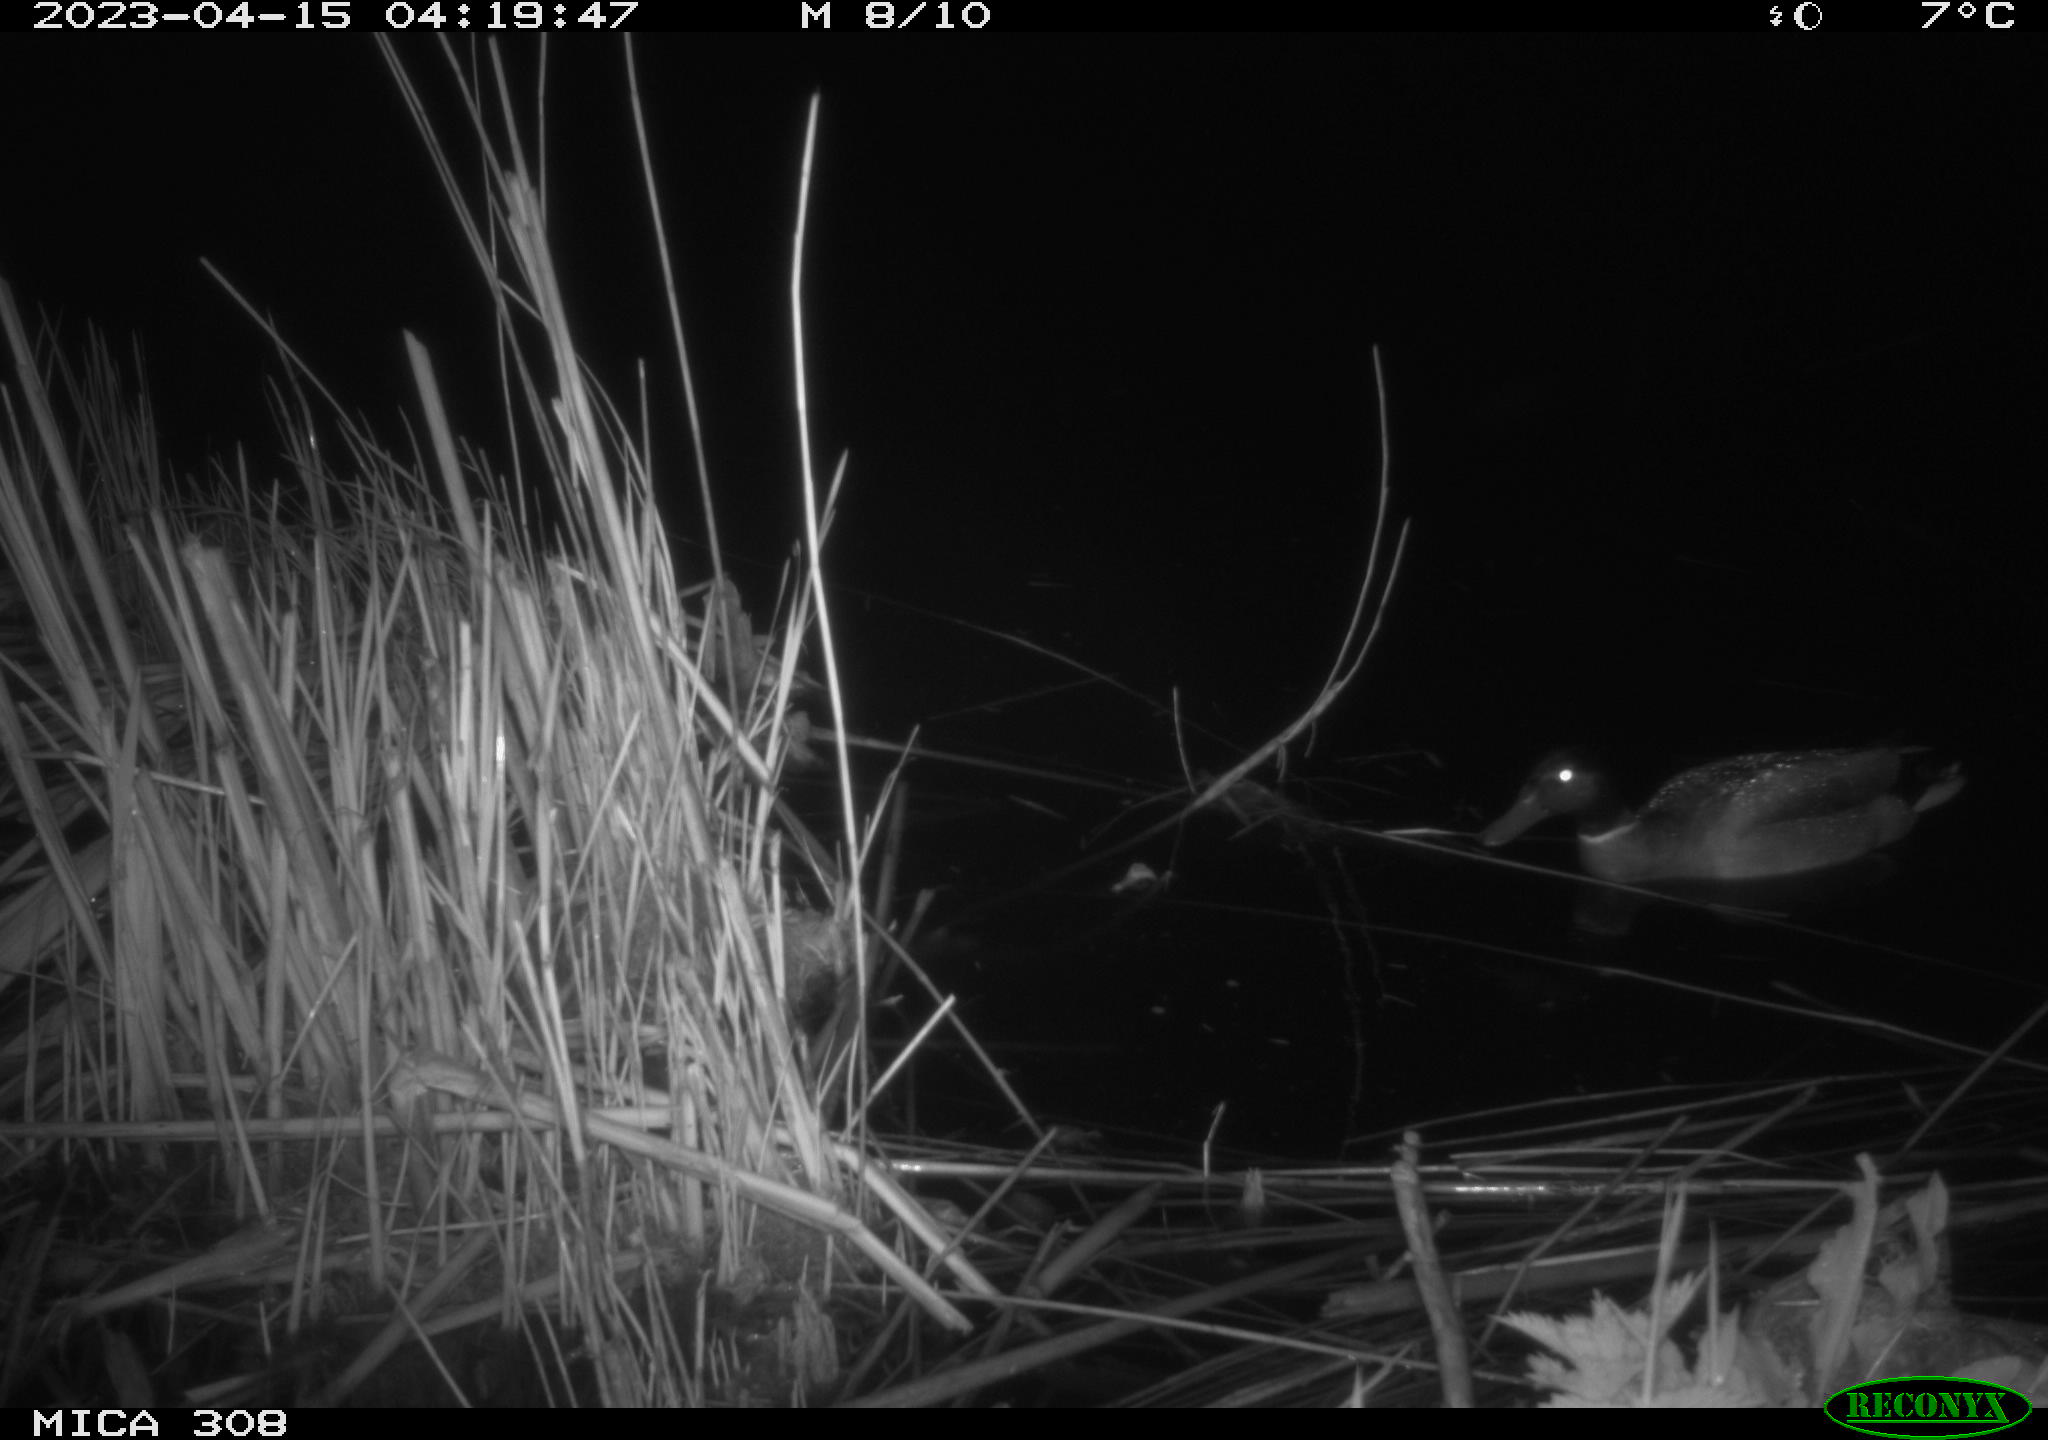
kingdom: Animalia
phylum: Chordata
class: Aves
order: Anseriformes
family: Anatidae
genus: Anas
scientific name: Anas
